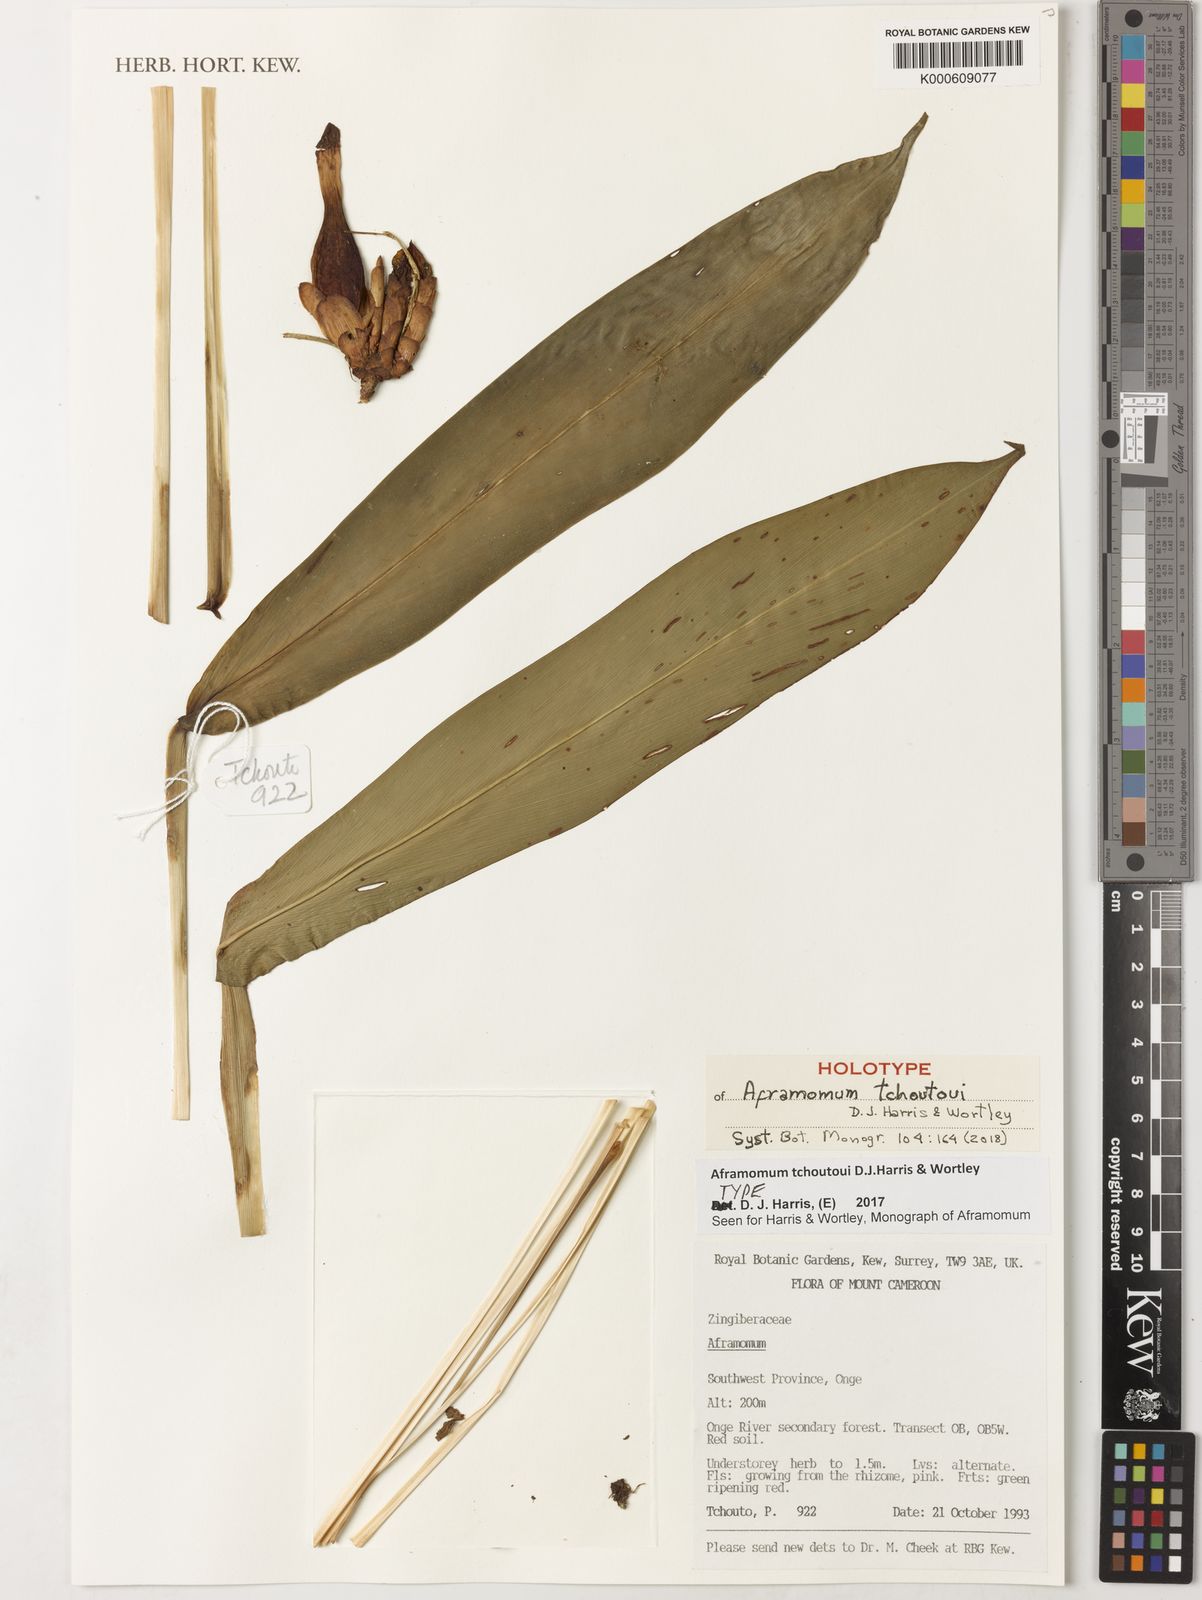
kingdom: Plantae
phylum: Tracheophyta
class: Liliopsida
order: Zingiberales
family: Zingiberaceae
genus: Aframomum
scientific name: Aframomum tchoutoui
